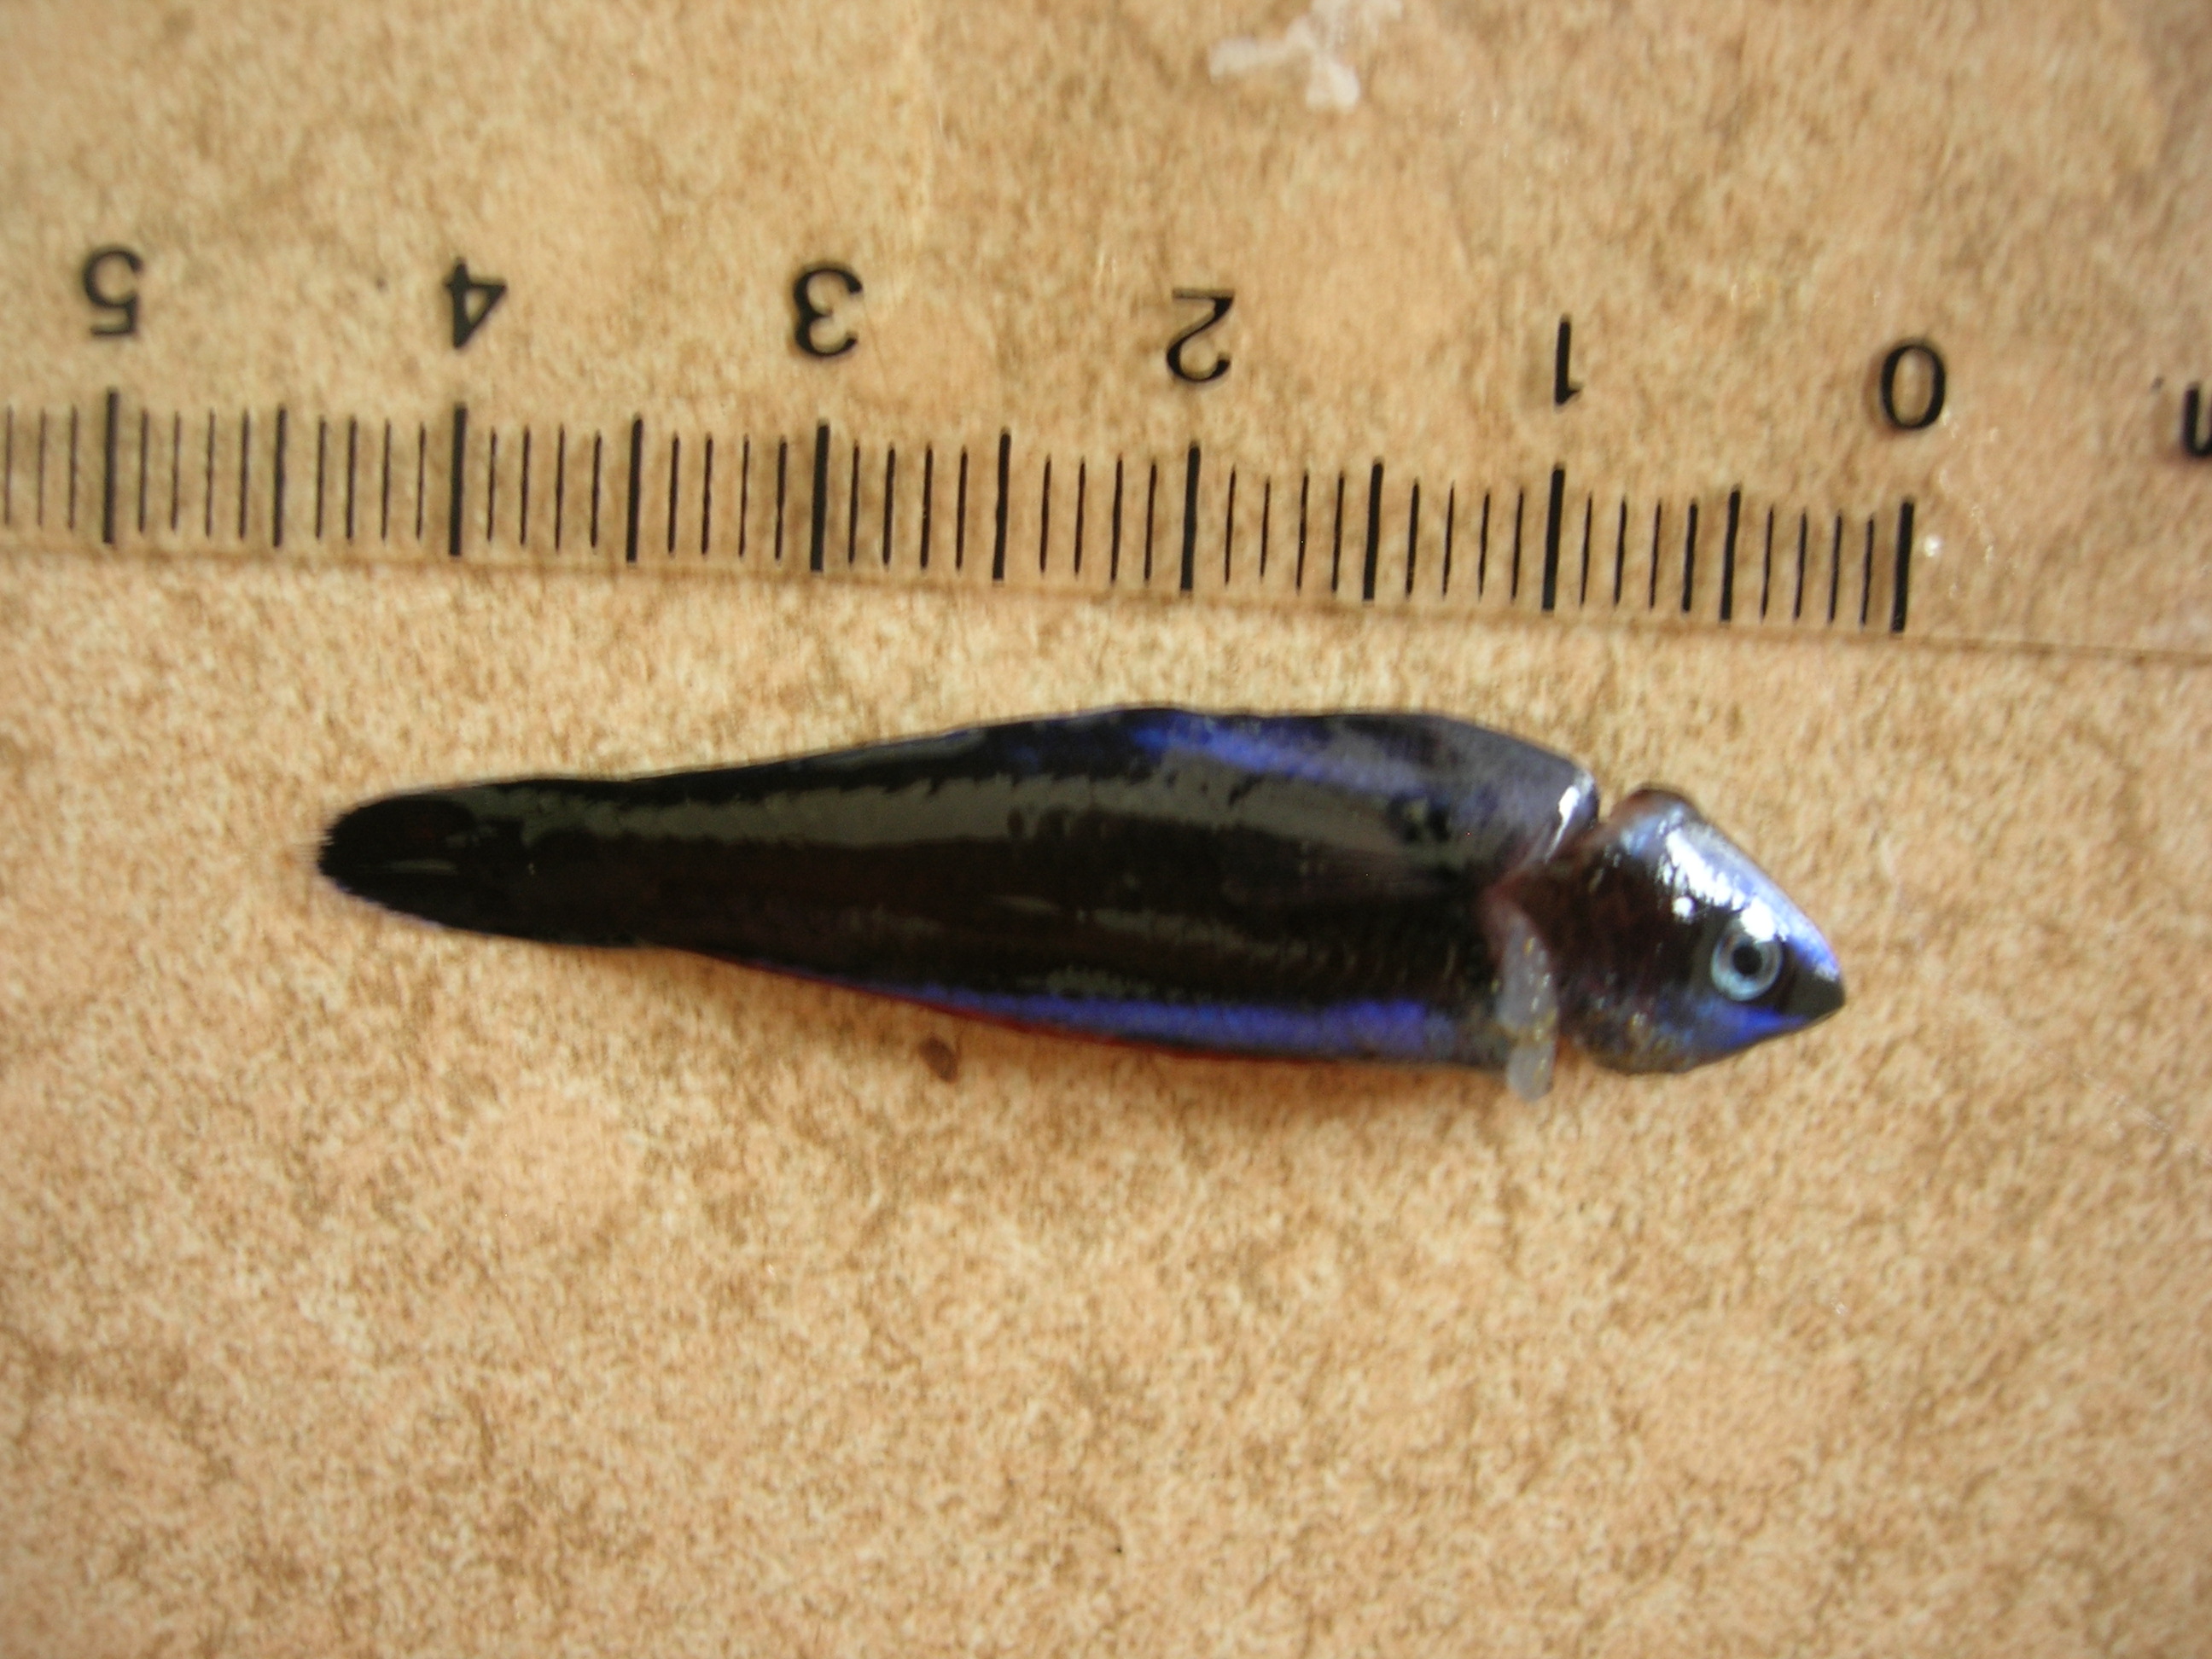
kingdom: Animalia
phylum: Chordata
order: Perciformes
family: Labridae
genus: Labroides
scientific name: Labroides dimidiatus
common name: Blue diesel wrasse
